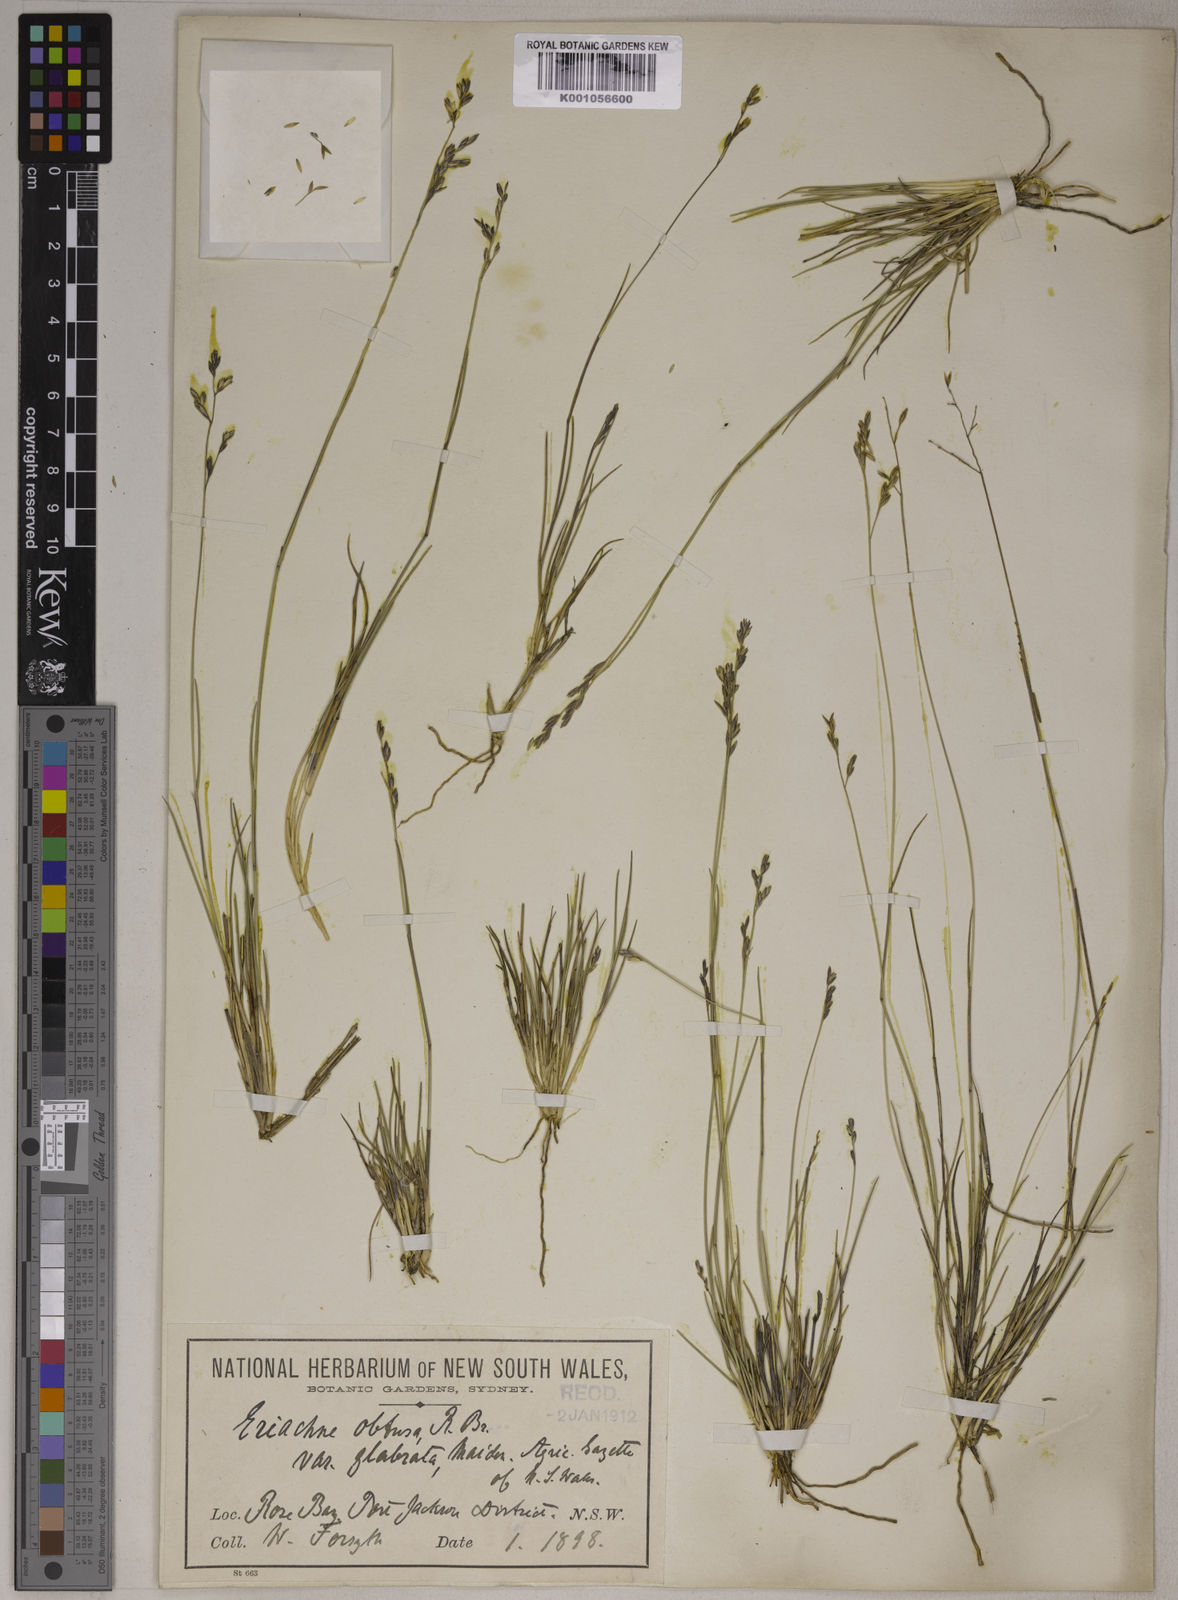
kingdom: Plantae
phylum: Tracheophyta
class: Liliopsida
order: Poales
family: Poaceae
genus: Eriachne
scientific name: Eriachne glabrata
